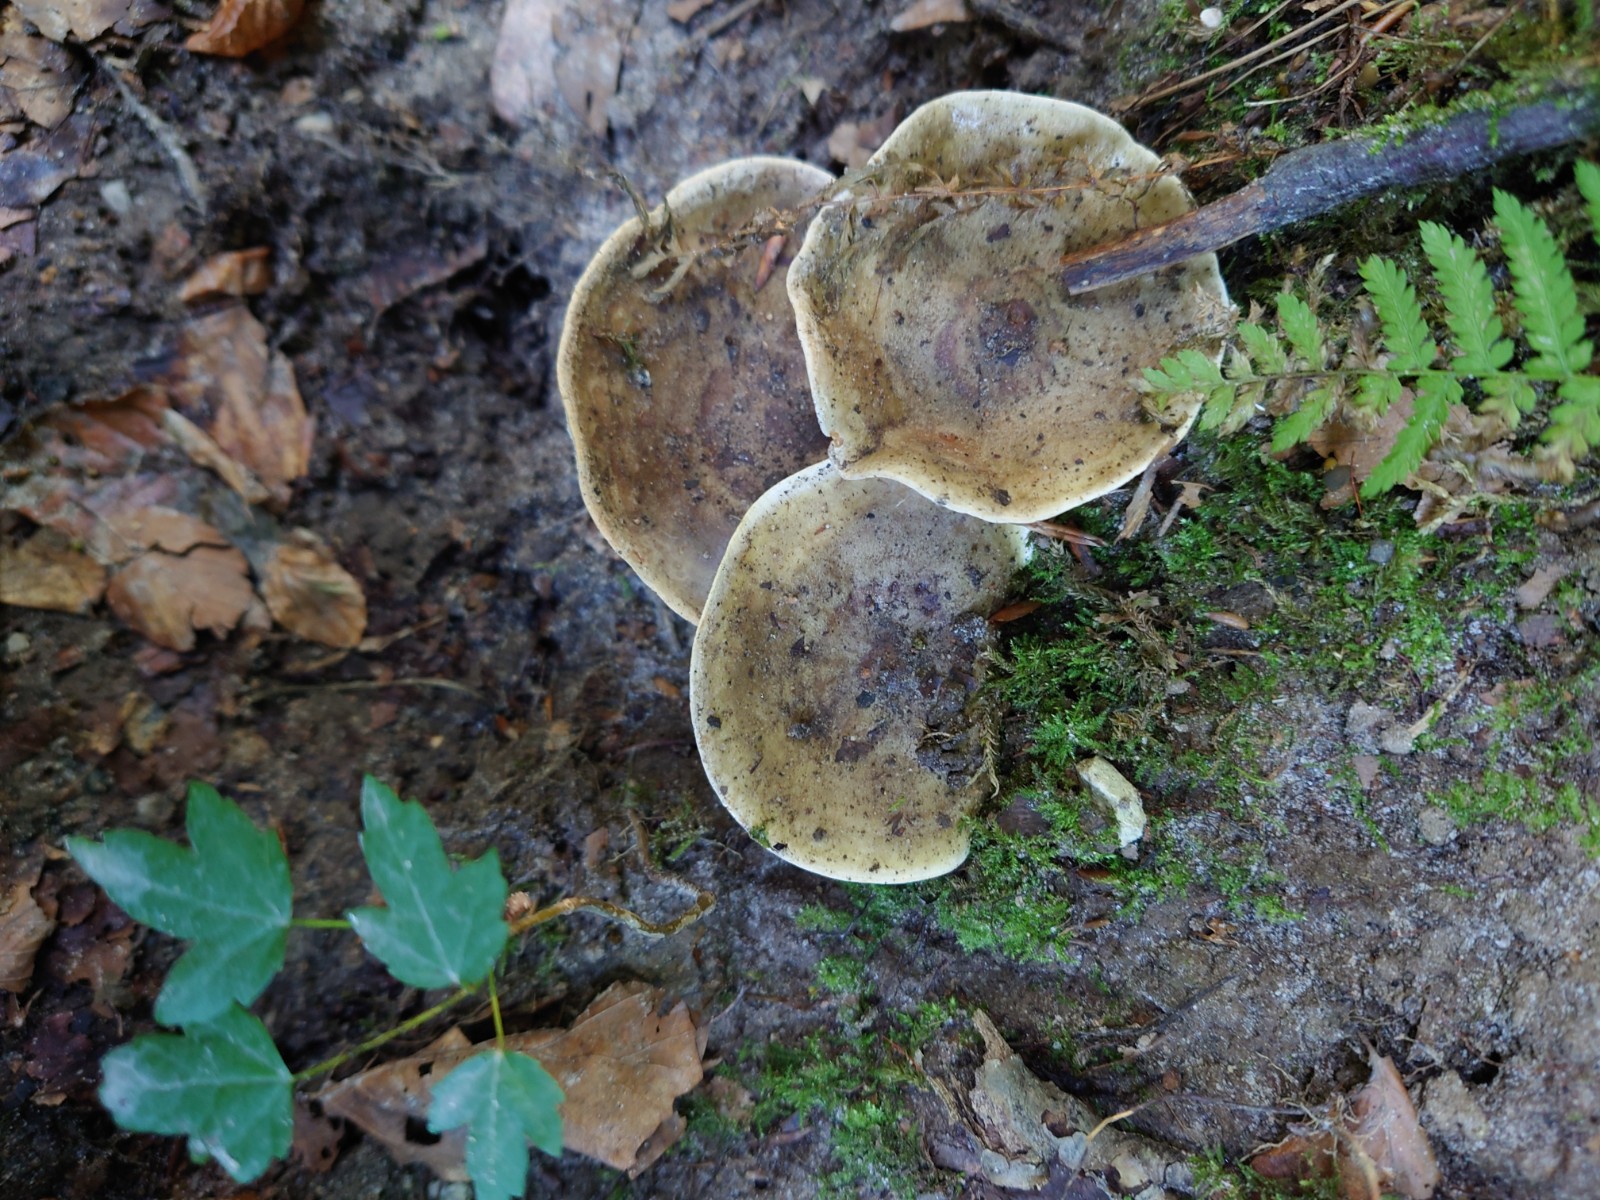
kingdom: Fungi
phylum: Basidiomycota
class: Agaricomycetes
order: Russulales
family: Russulaceae
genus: Lactarius
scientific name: Lactarius fluens
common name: lysrandet mælkehat
